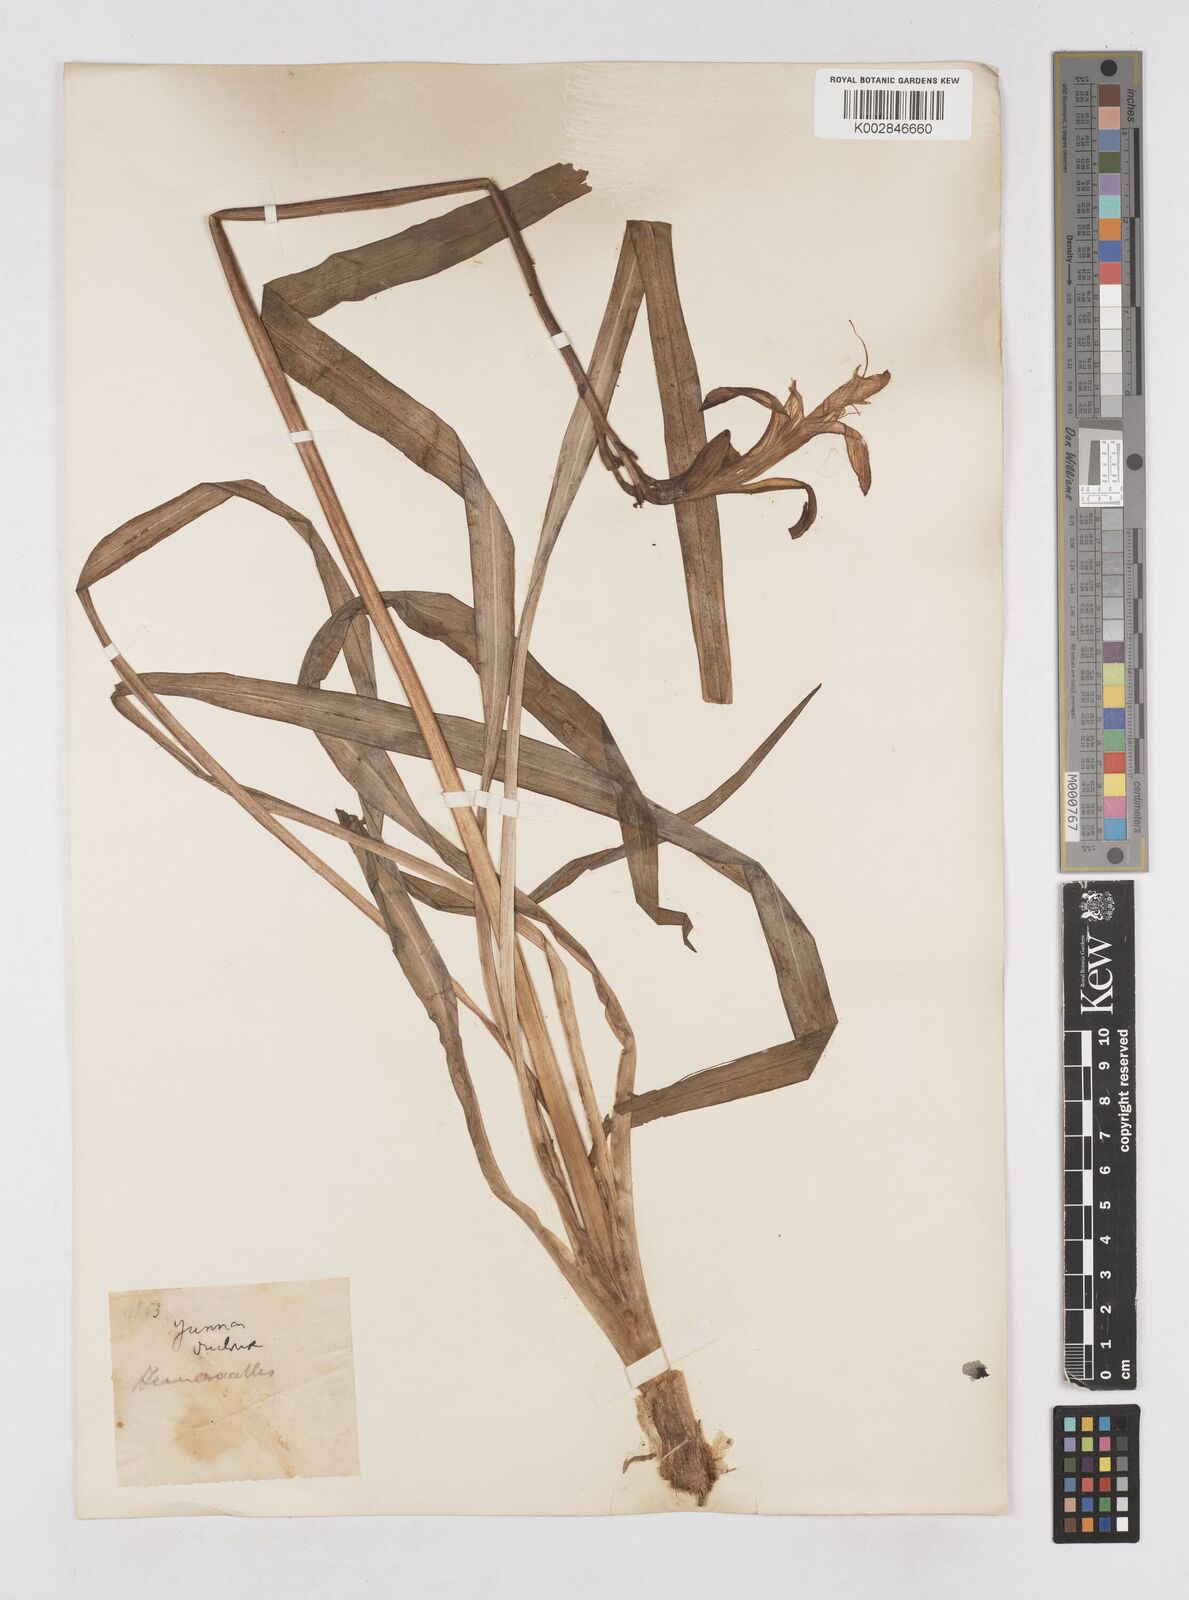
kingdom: Plantae
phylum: Tracheophyta
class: Liliopsida
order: Asparagales
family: Asphodelaceae
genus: Hemerocallis
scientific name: Hemerocallis fulva
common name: Orange day-lily
